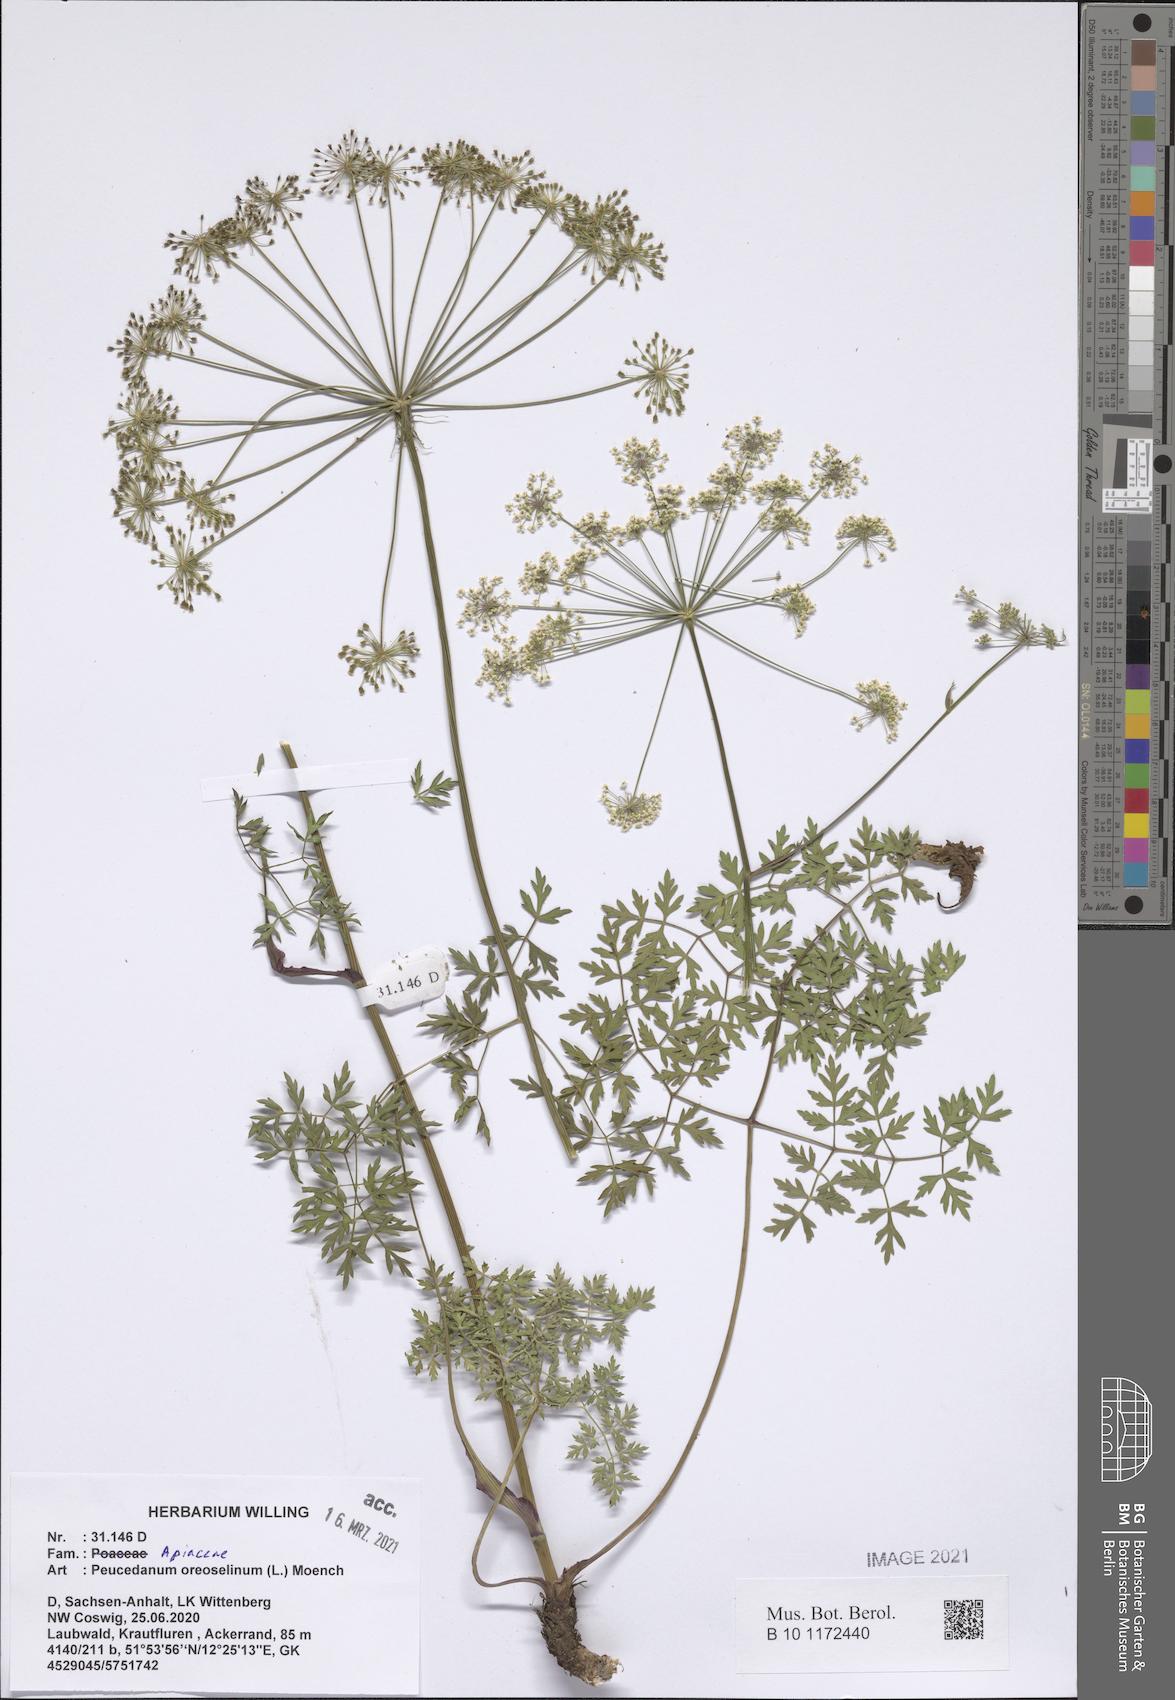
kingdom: Plantae
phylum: Tracheophyta
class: Magnoliopsida
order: Apiales
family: Apiaceae
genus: Oreoselinum
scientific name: Oreoselinum nigrum
